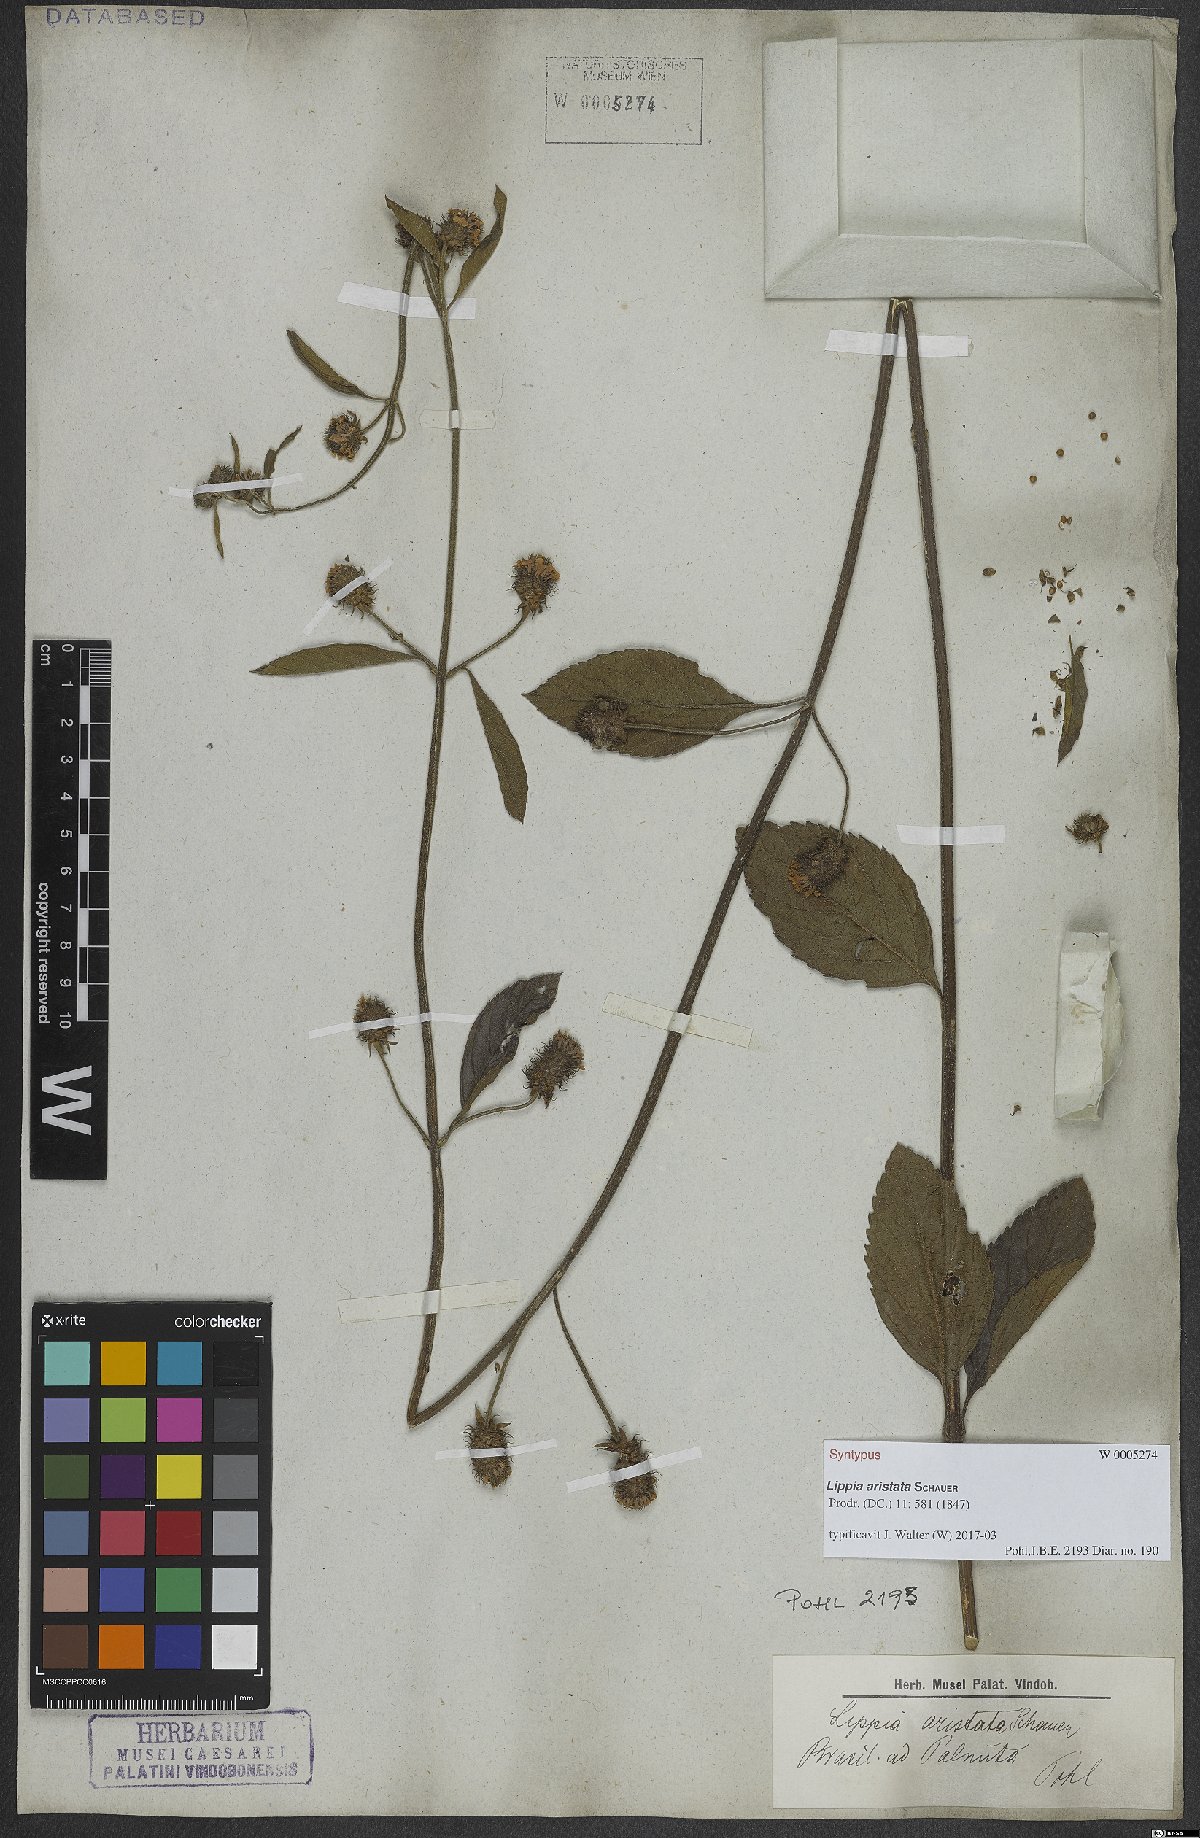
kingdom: Plantae
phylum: Tracheophyta
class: Magnoliopsida
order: Lamiales
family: Verbenaceae
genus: Lippia
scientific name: Lippia aristata
